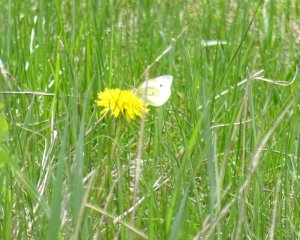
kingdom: Animalia
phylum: Arthropoda
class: Insecta
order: Lepidoptera
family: Pieridae
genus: Pieris
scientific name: Pieris rapae
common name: Cabbage White
